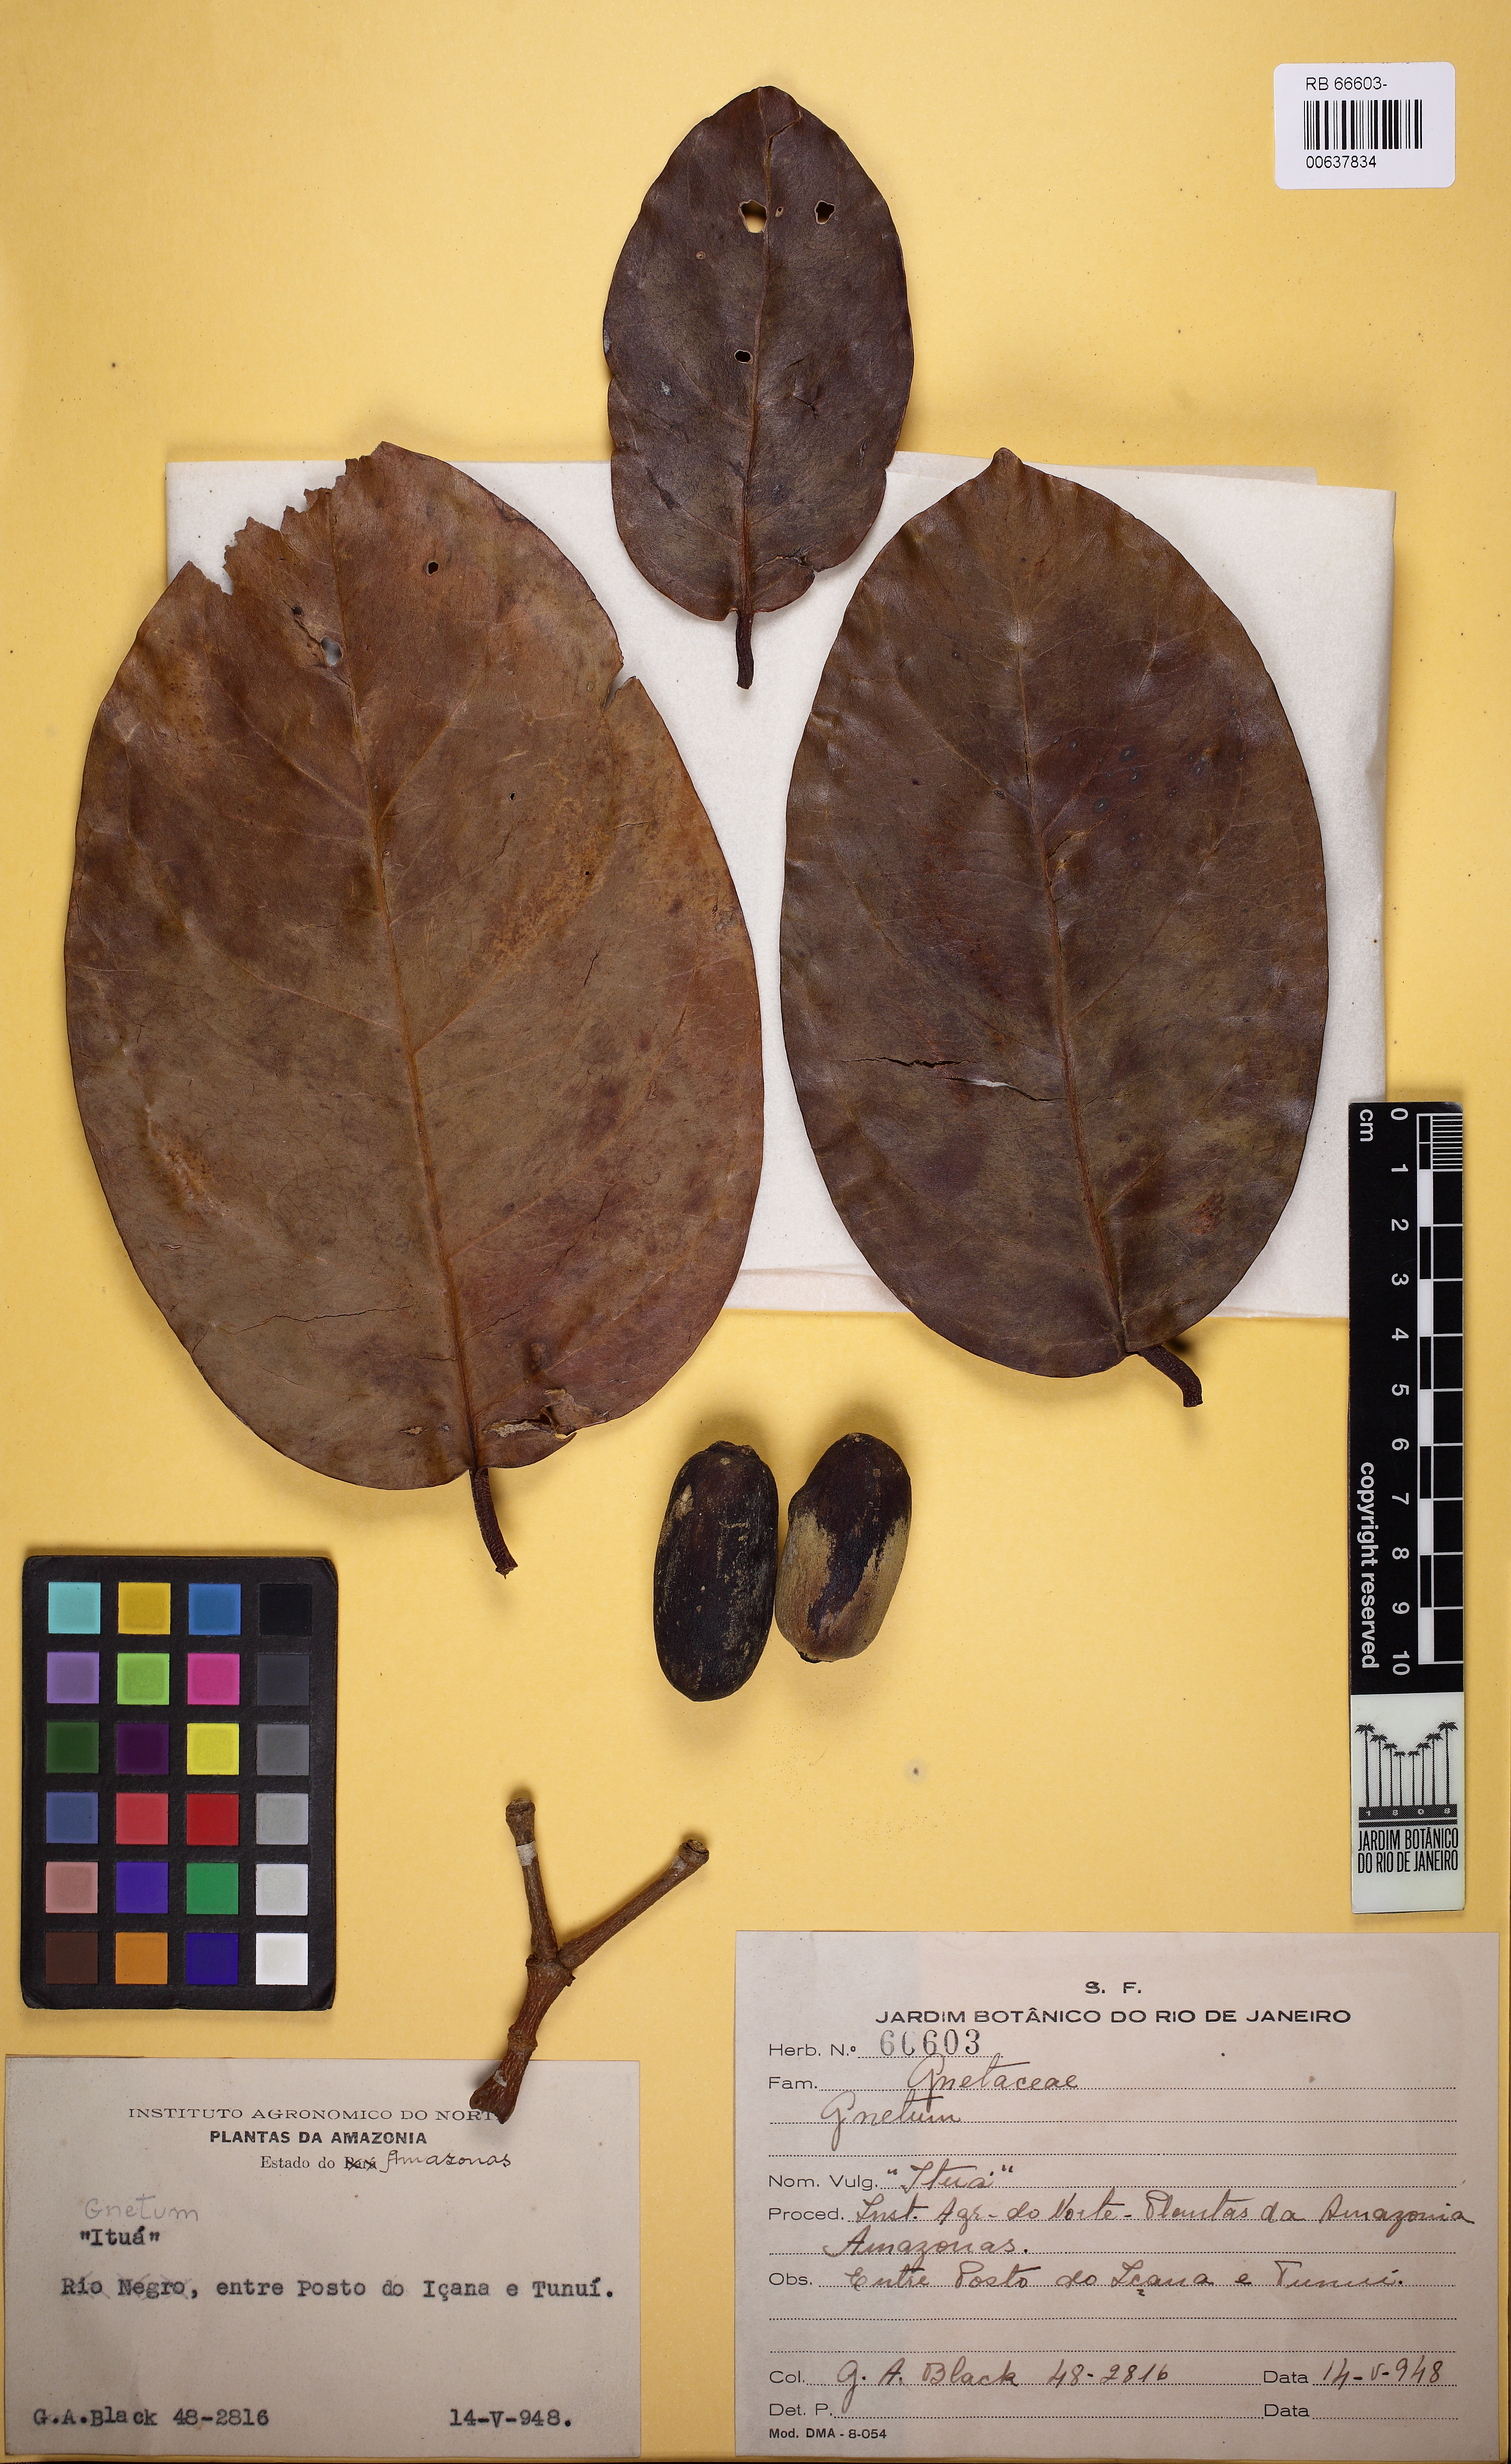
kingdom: Plantae
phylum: Tracheophyta
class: Gnetopsida
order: Gnetales
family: Gnetaceae
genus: Gnetum
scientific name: Gnetum
